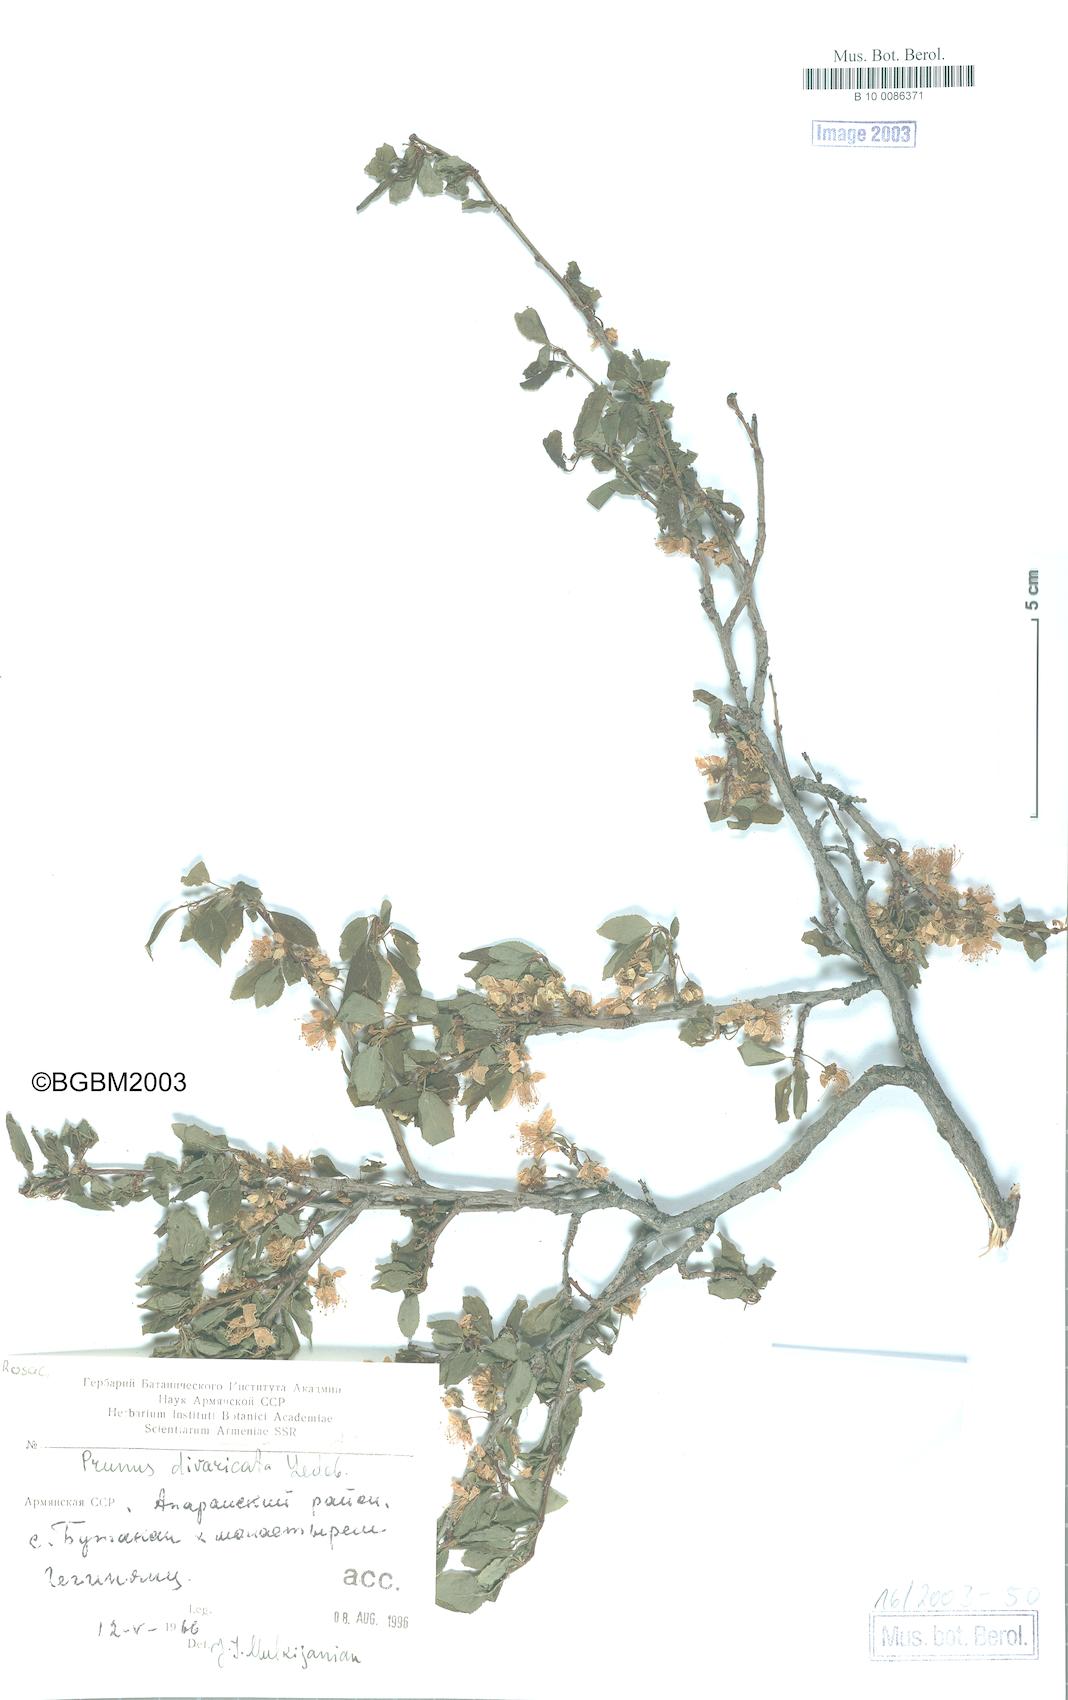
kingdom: Plantae
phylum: Tracheophyta
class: Magnoliopsida
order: Rosales
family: Rosaceae
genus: Prunus
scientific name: Prunus cerasifera
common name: Cherry plum
